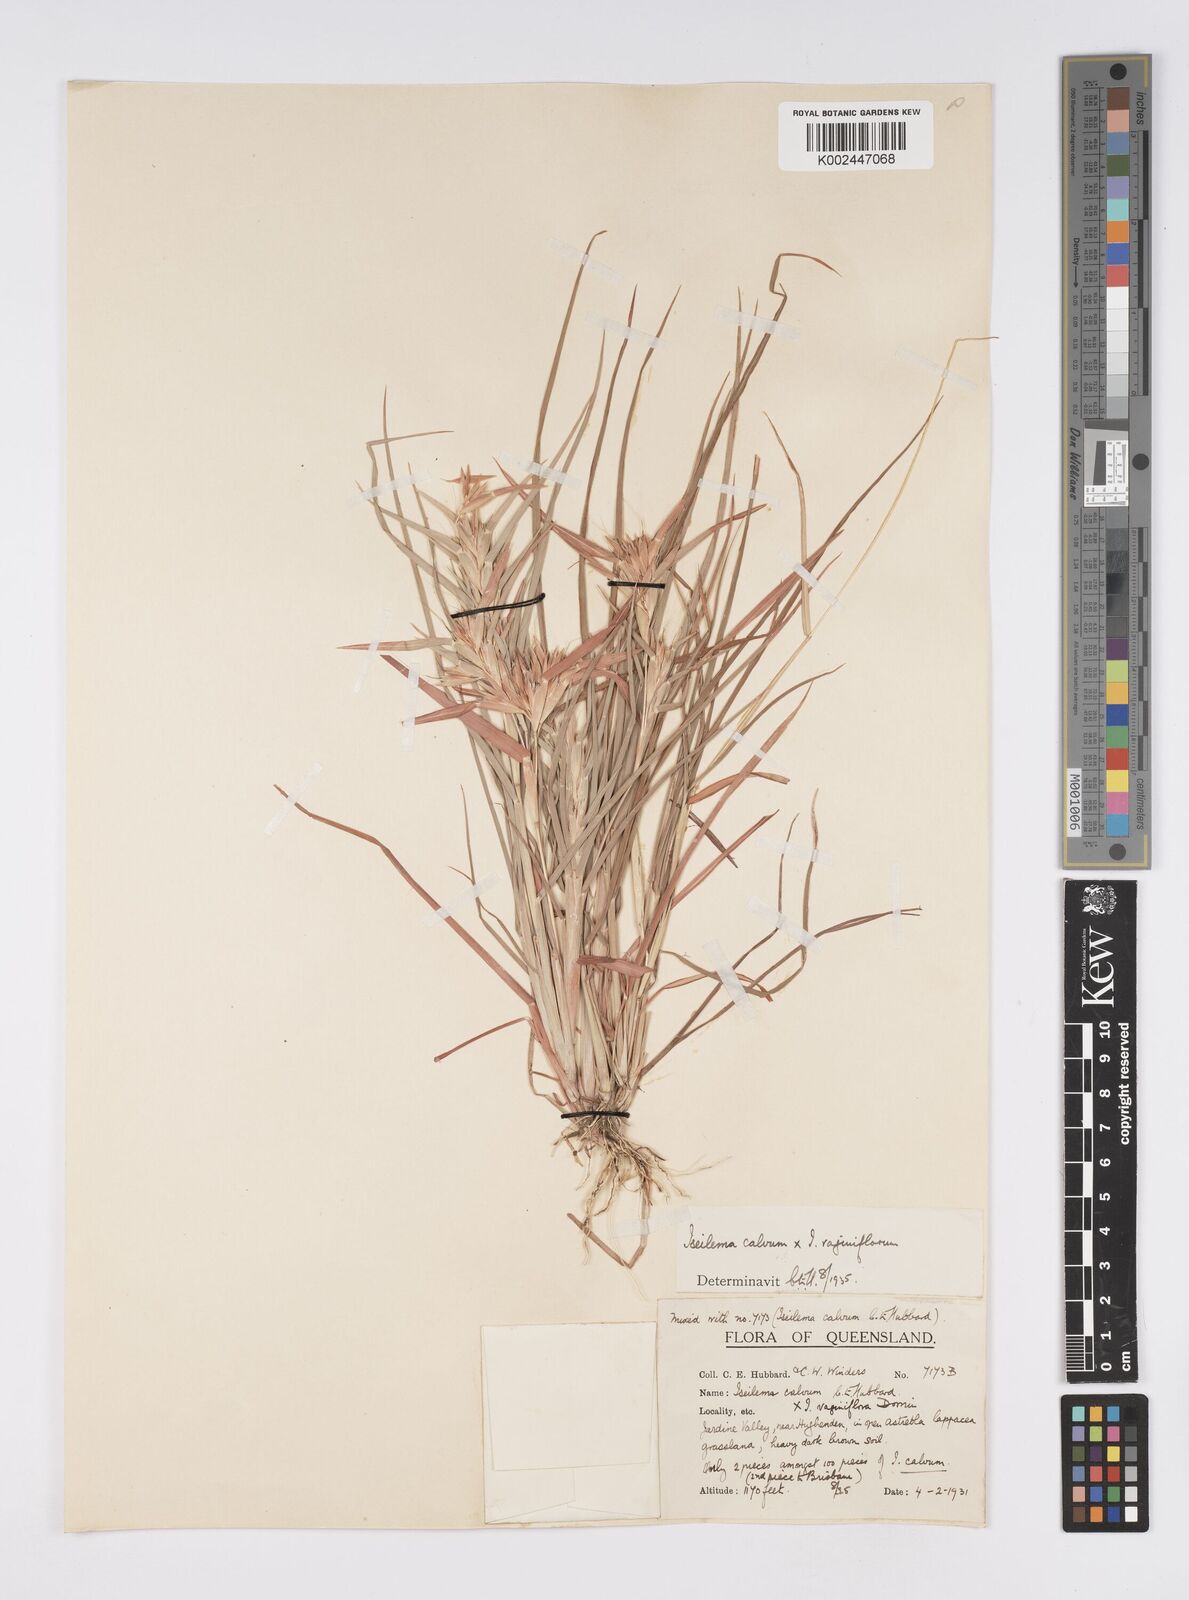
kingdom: Plantae
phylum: Tracheophyta
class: Liliopsida
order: Poales
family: Poaceae
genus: Iseilema
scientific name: Iseilema calvum
